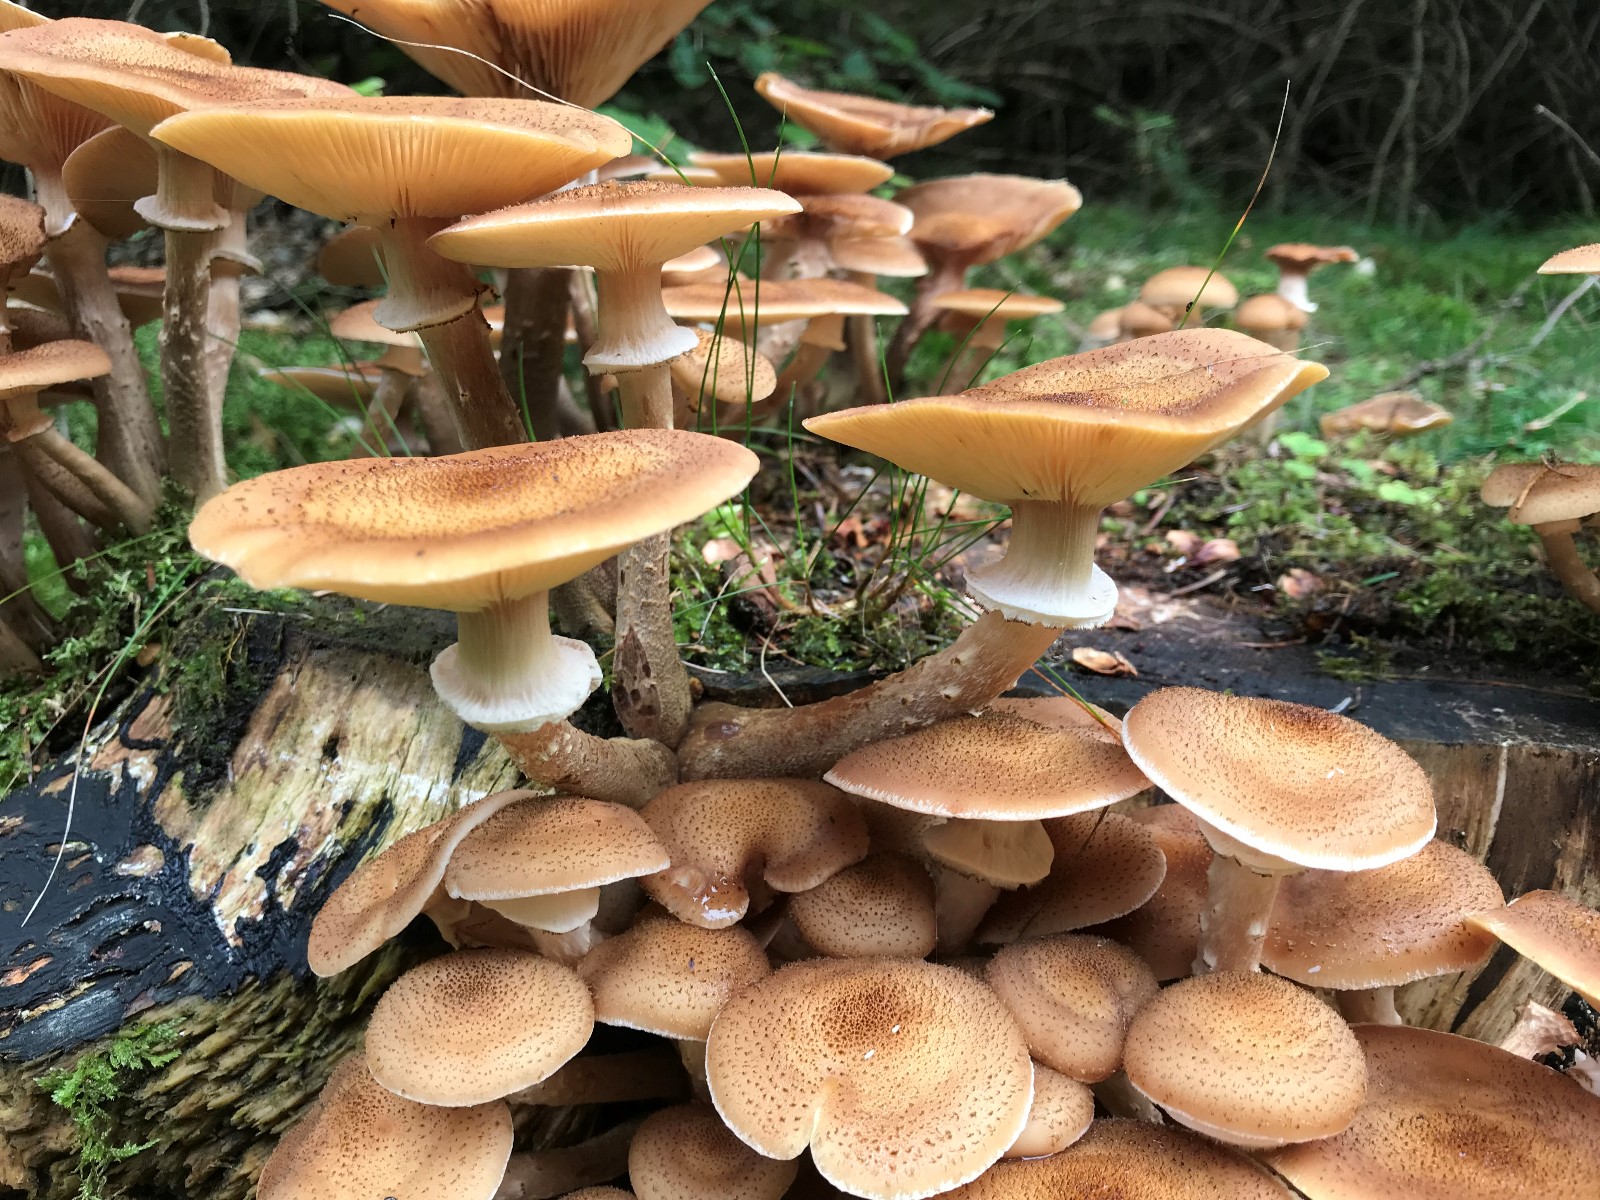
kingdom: Fungi
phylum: Basidiomycota
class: Agaricomycetes
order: Agaricales
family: Physalacriaceae
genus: Armillaria
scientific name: Armillaria ostoyae
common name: mørk honningsvamp
